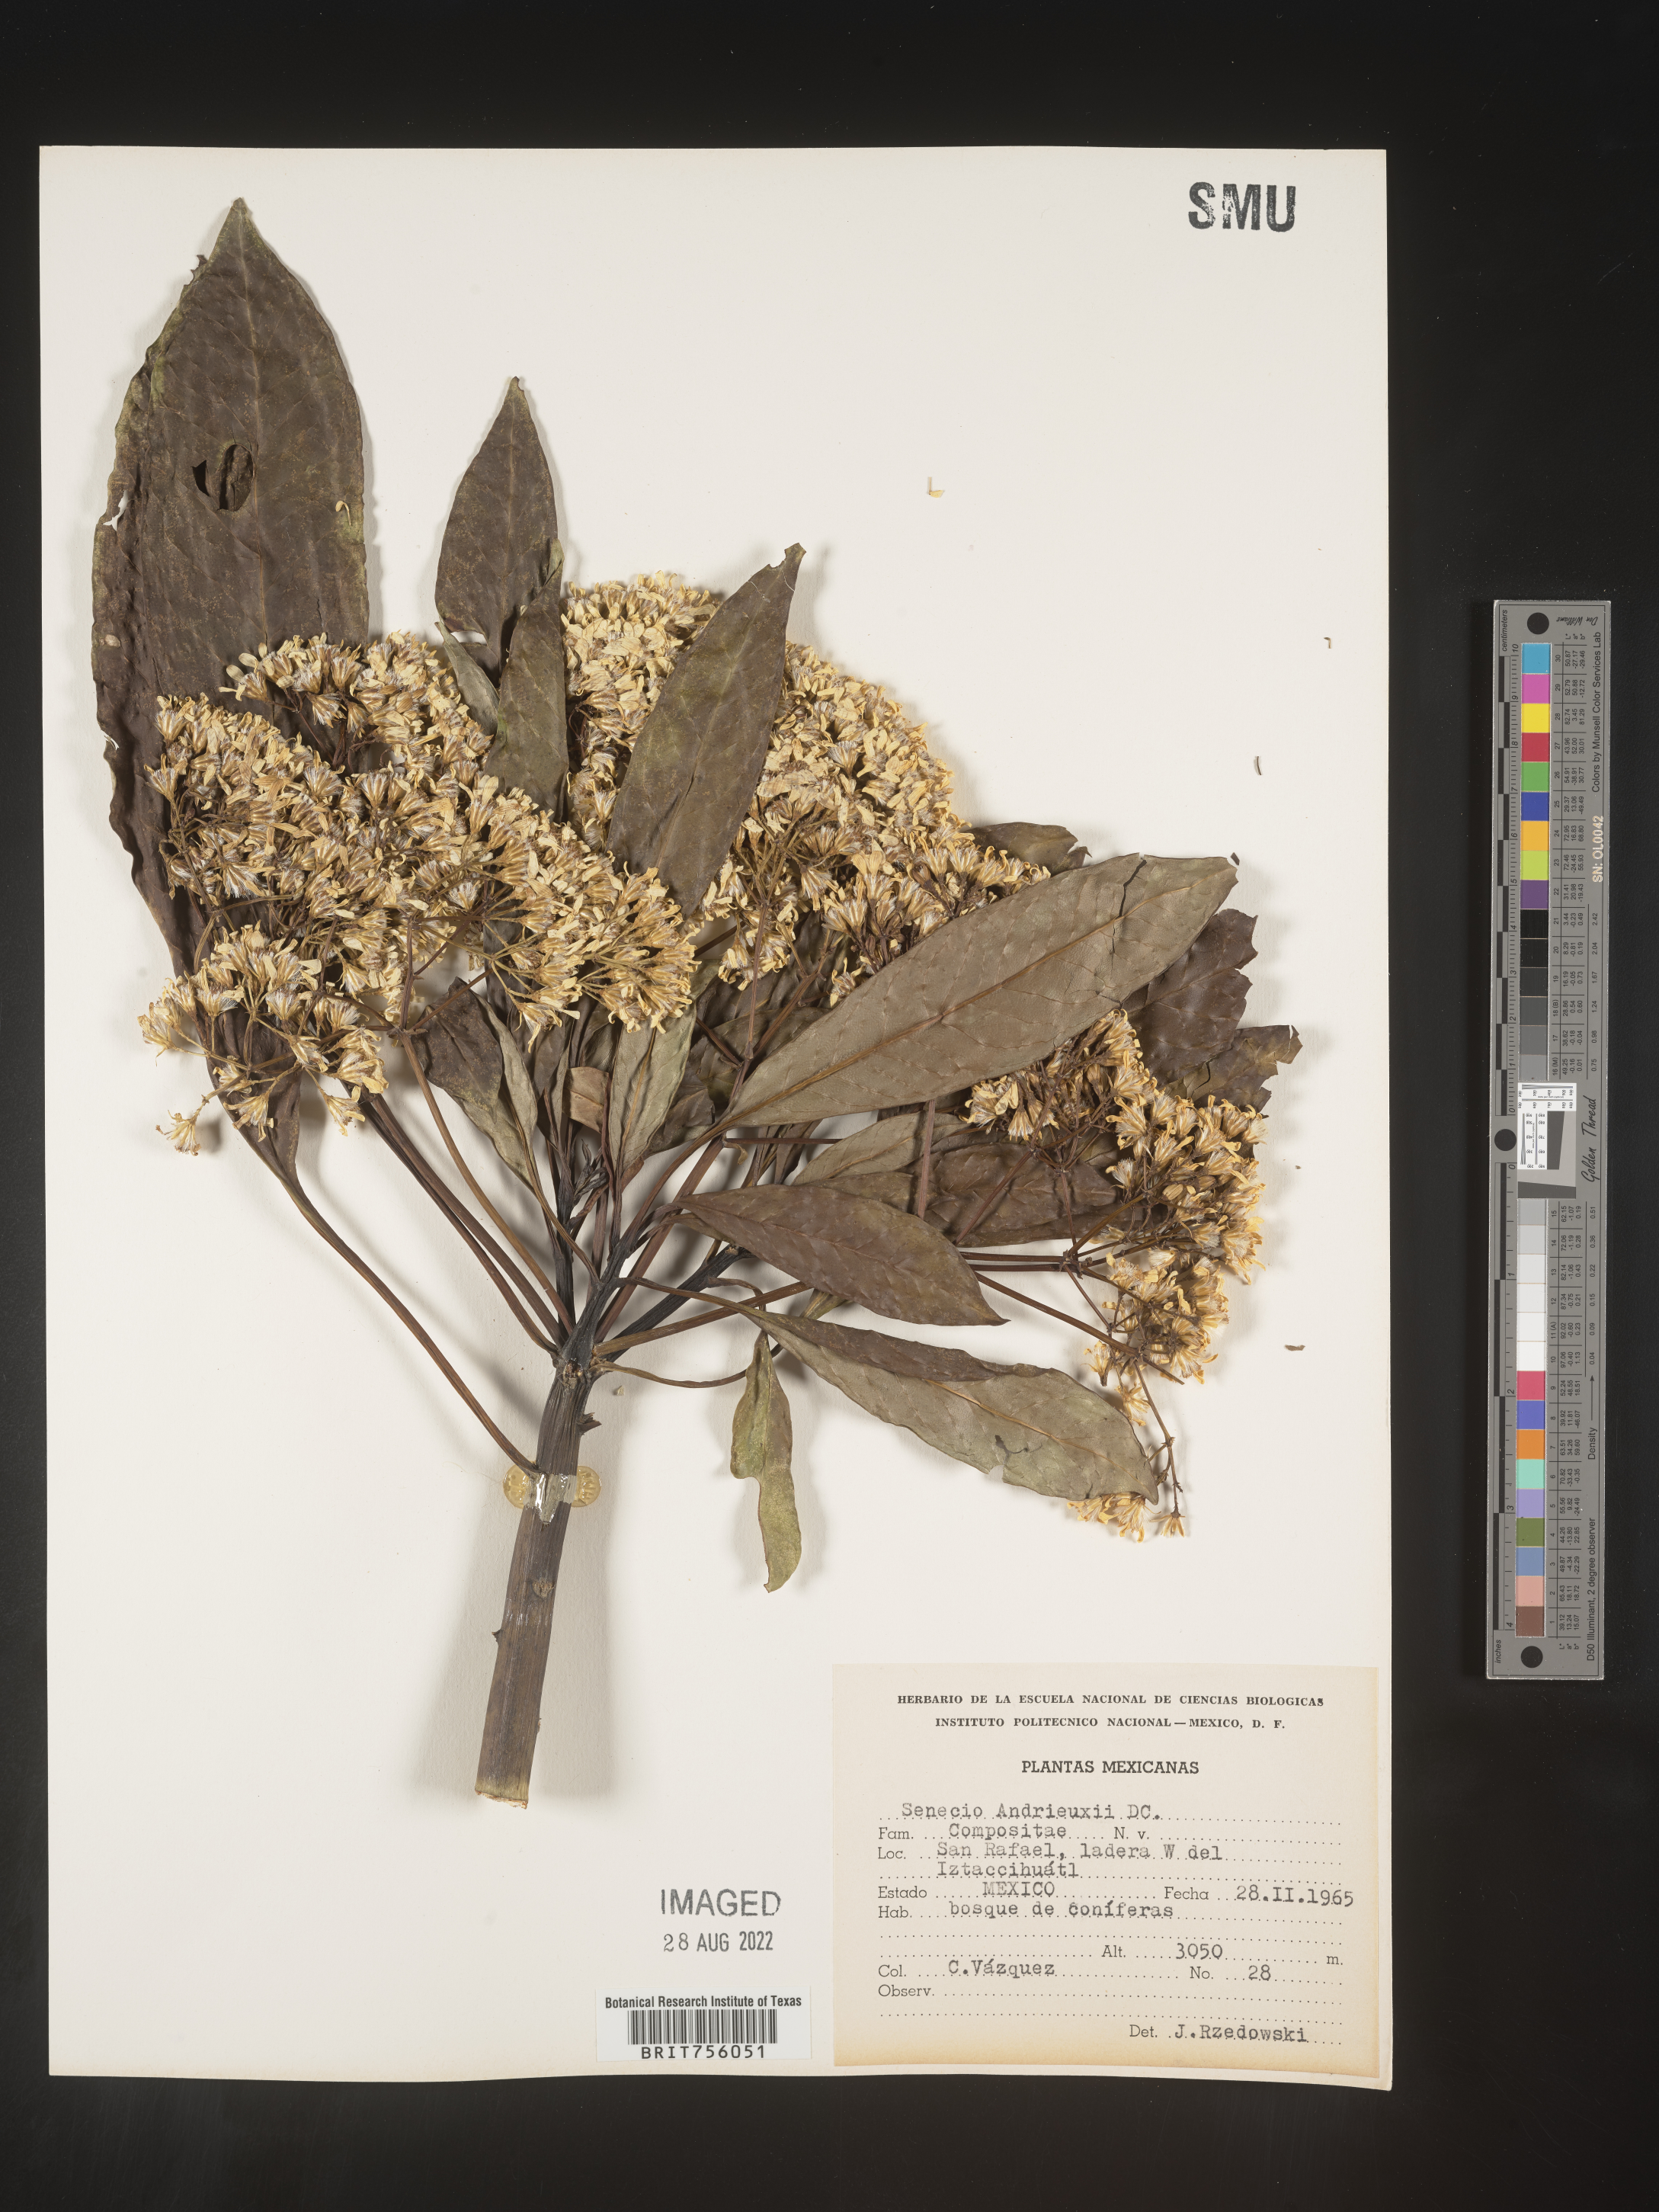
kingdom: Plantae
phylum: Tracheophyta
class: Magnoliopsida
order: Asterales
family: Asteraceae
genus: Telanthophora
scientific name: Telanthophora
